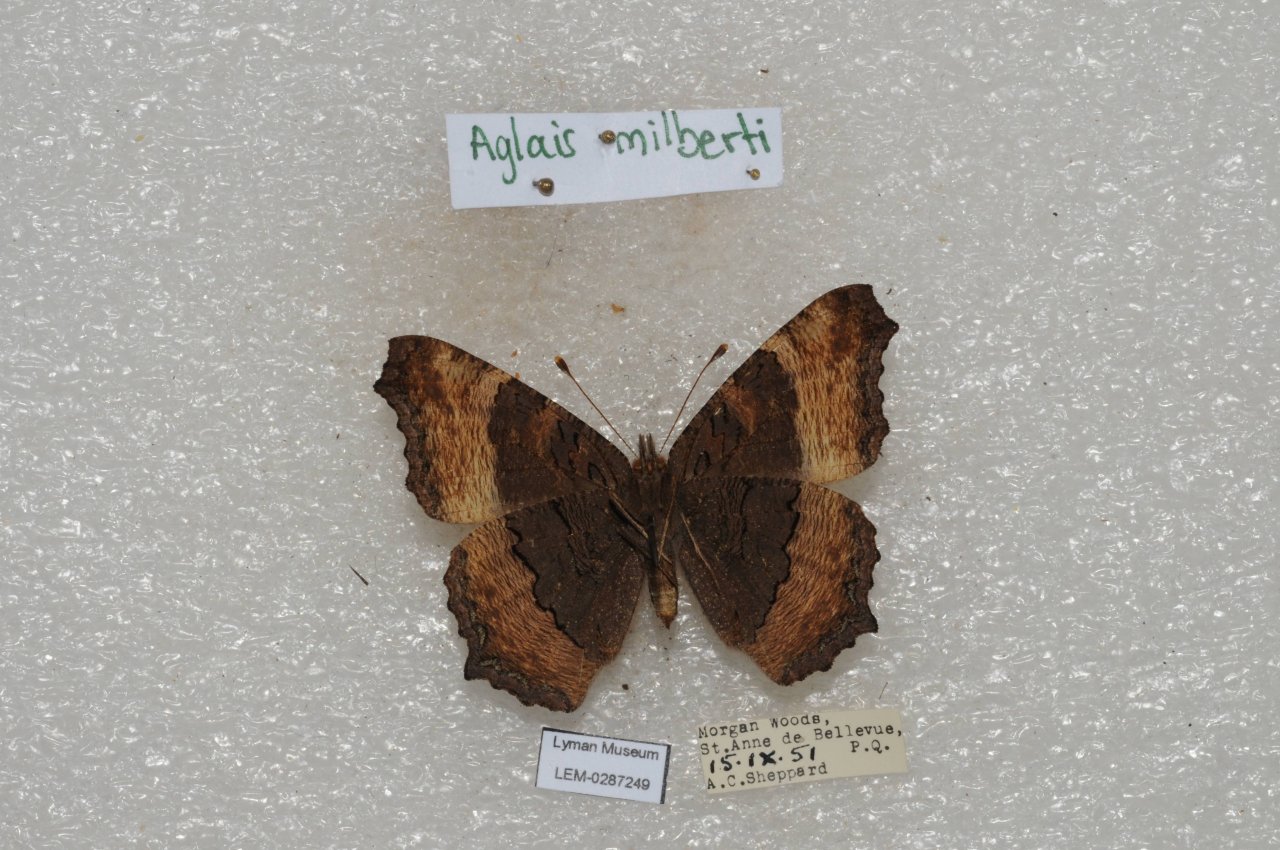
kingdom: Animalia
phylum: Arthropoda
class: Insecta
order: Lepidoptera
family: Nymphalidae
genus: Aglais
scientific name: Aglais milberti
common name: Milbert's Tortoiseshell
